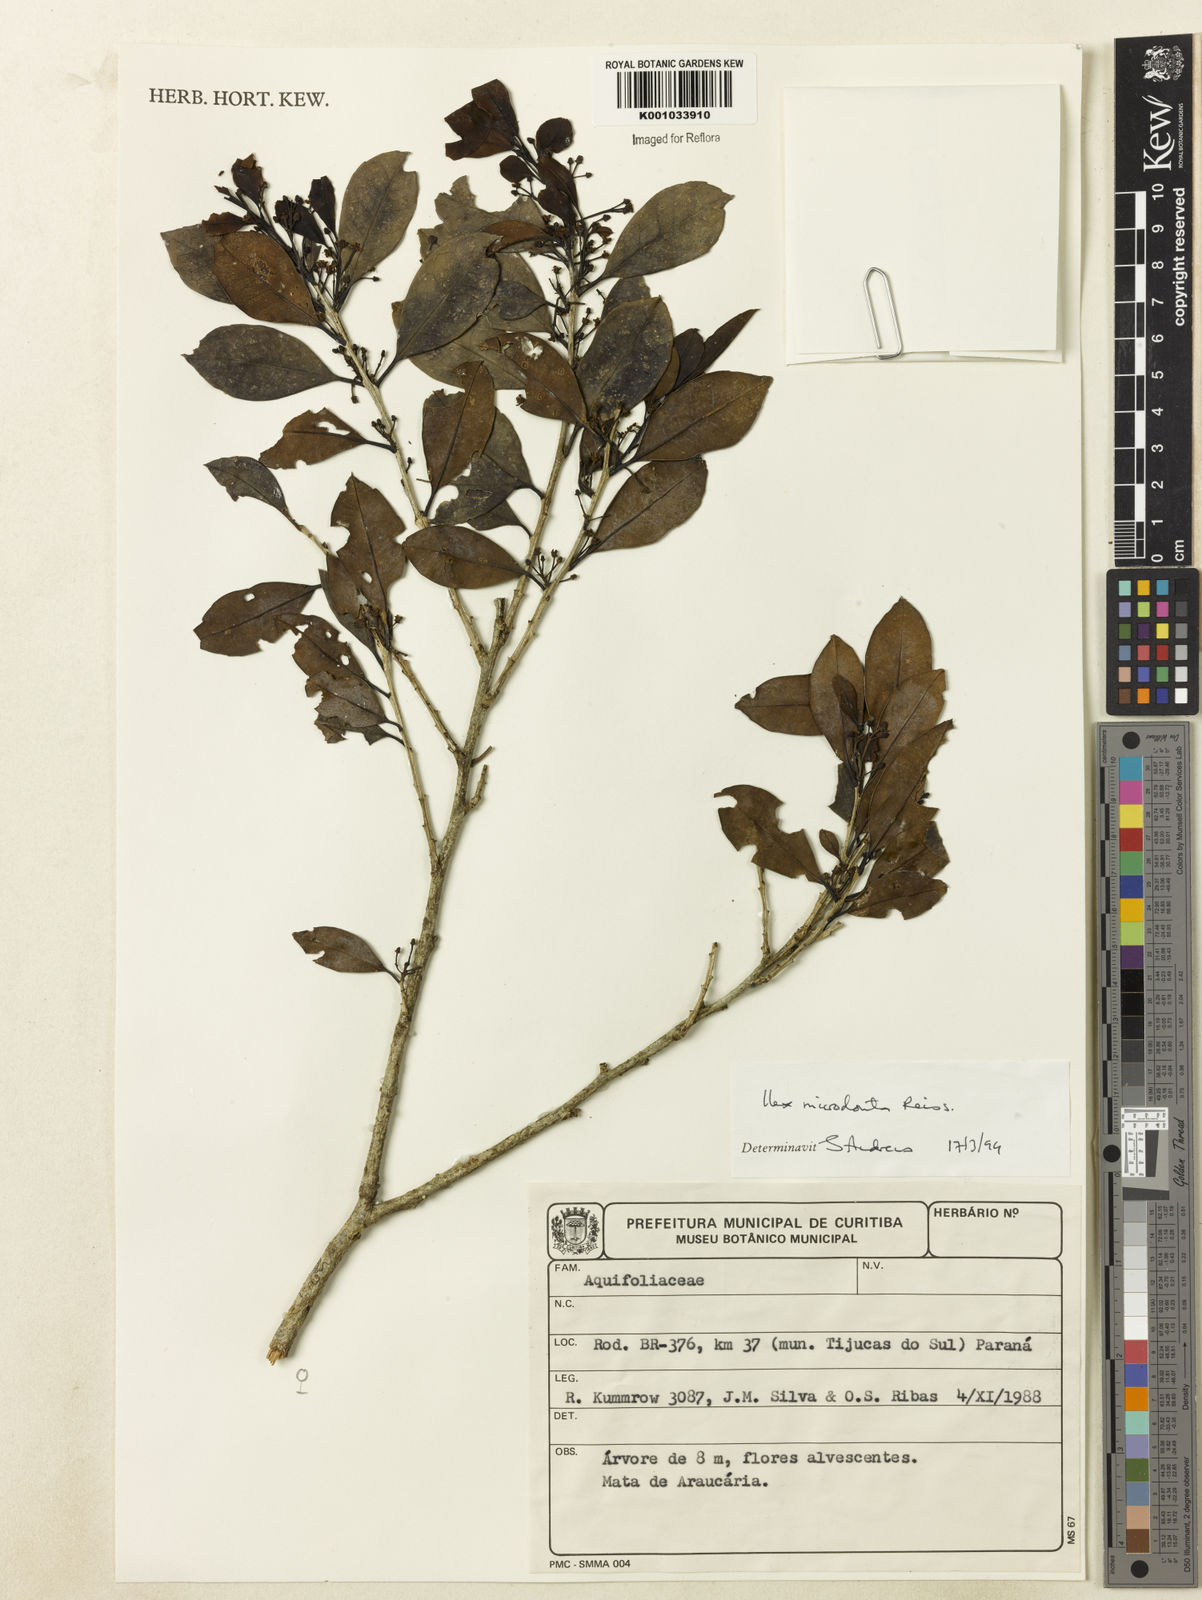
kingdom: Plantae
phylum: Tracheophyta
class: Magnoliopsida
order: Aquifoliales
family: Aquifoliaceae
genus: Ilex
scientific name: Ilex microdonta
